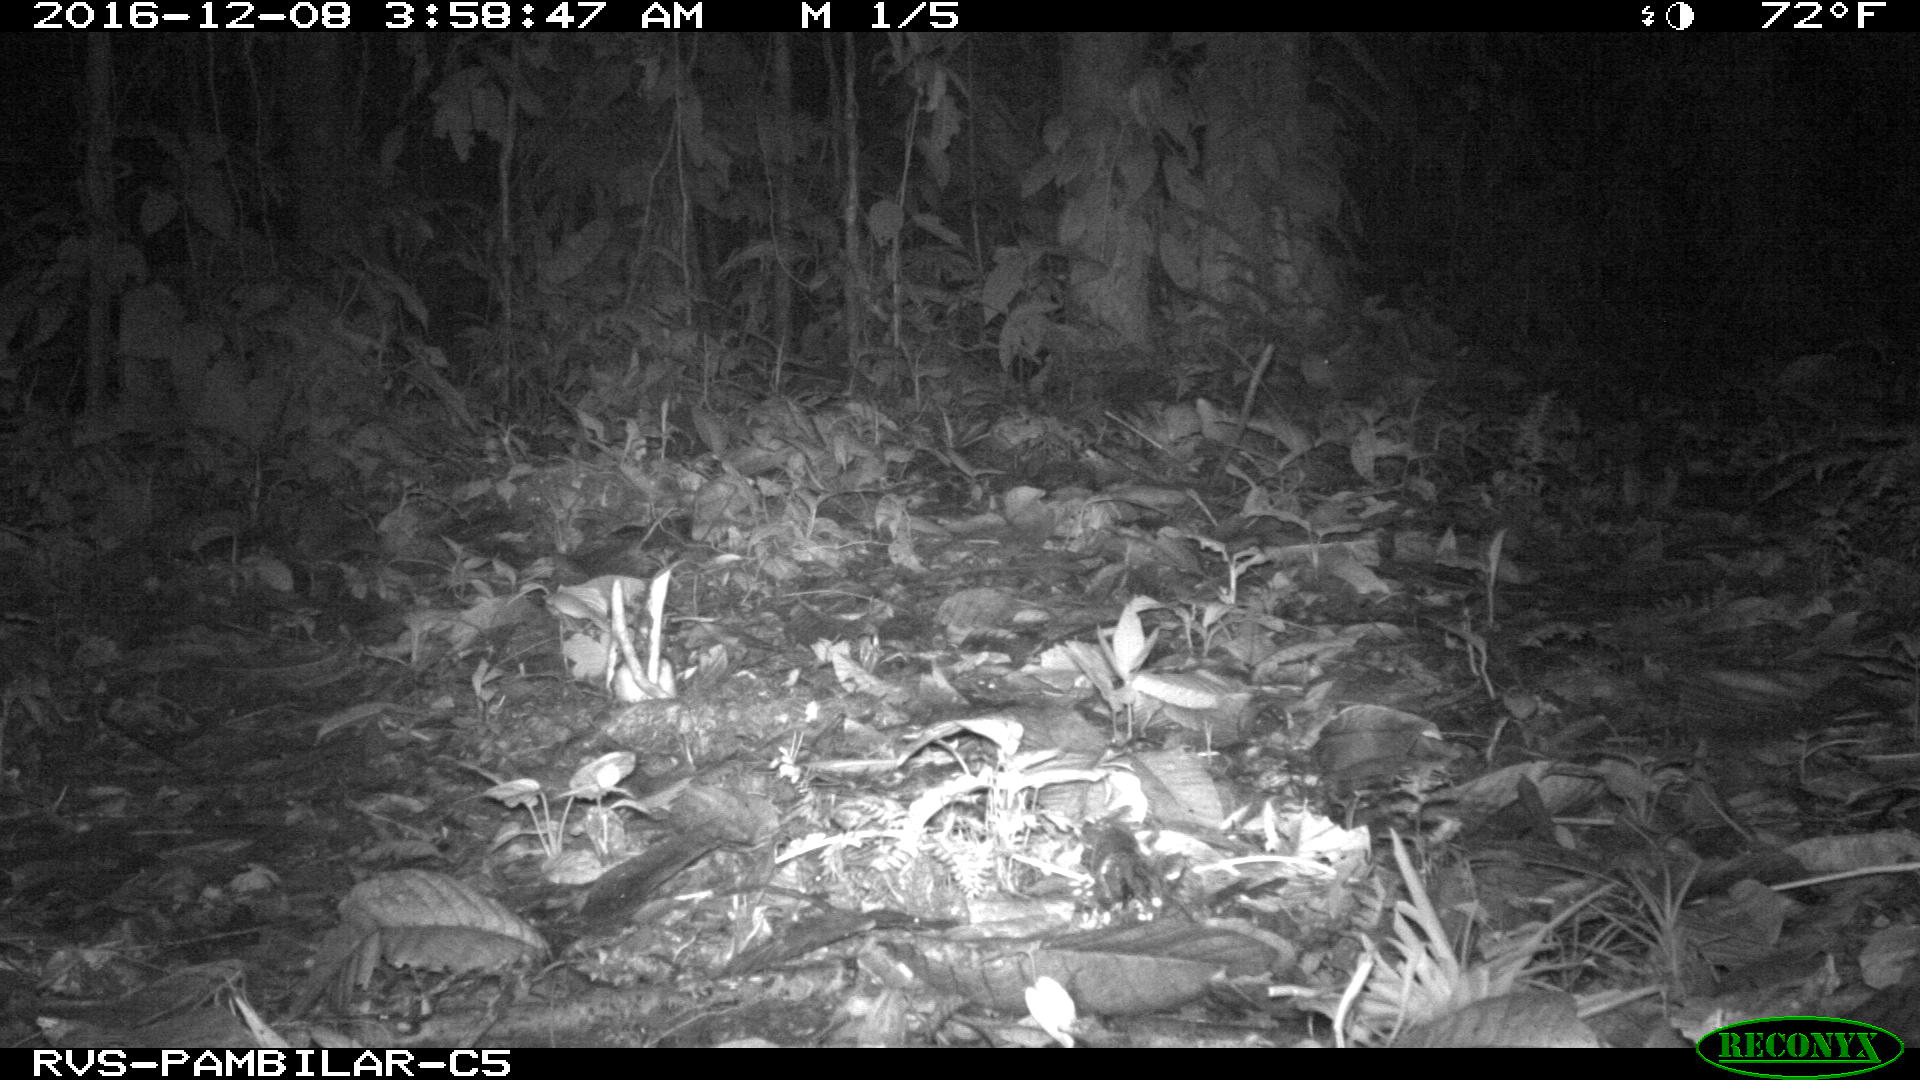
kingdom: Animalia
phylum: Chordata
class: Mammalia
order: Cingulata
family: Dasypodidae
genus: Dasypus
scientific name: Dasypus novemcinctus
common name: Nine-banded armadillo
